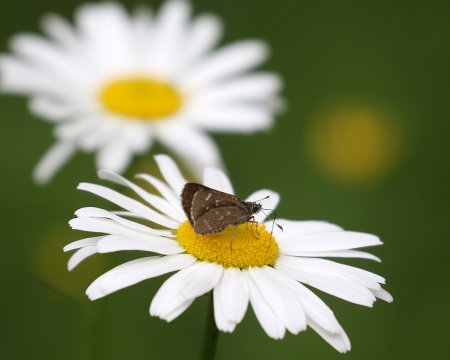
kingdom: Animalia
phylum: Arthropoda
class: Insecta
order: Lepidoptera
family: Hesperiidae
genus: Mastor
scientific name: Mastor hegon
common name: Pepper and Salt Skipper
